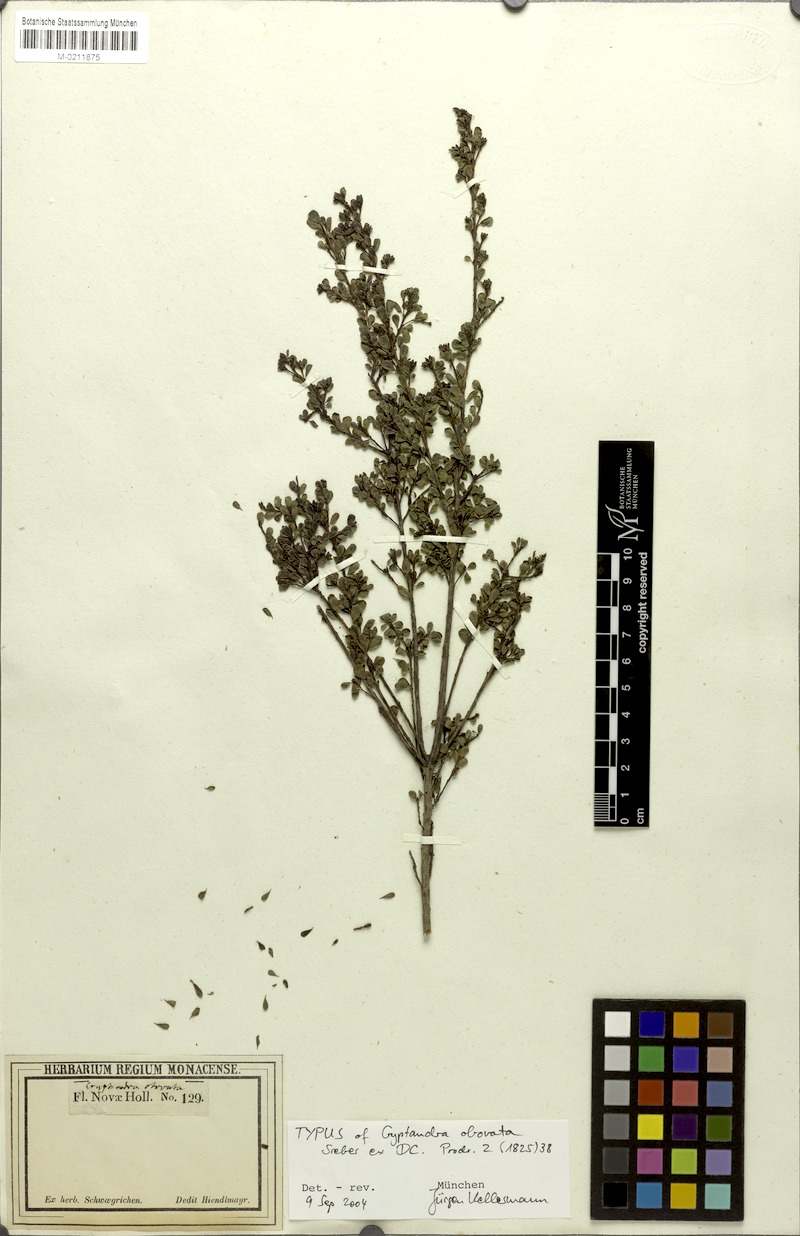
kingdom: Plantae
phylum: Tracheophyta
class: Magnoliopsida
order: Fabales
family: Fabaceae
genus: Pultenaea
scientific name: Pultenaea altissima
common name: Tall bush-pea
